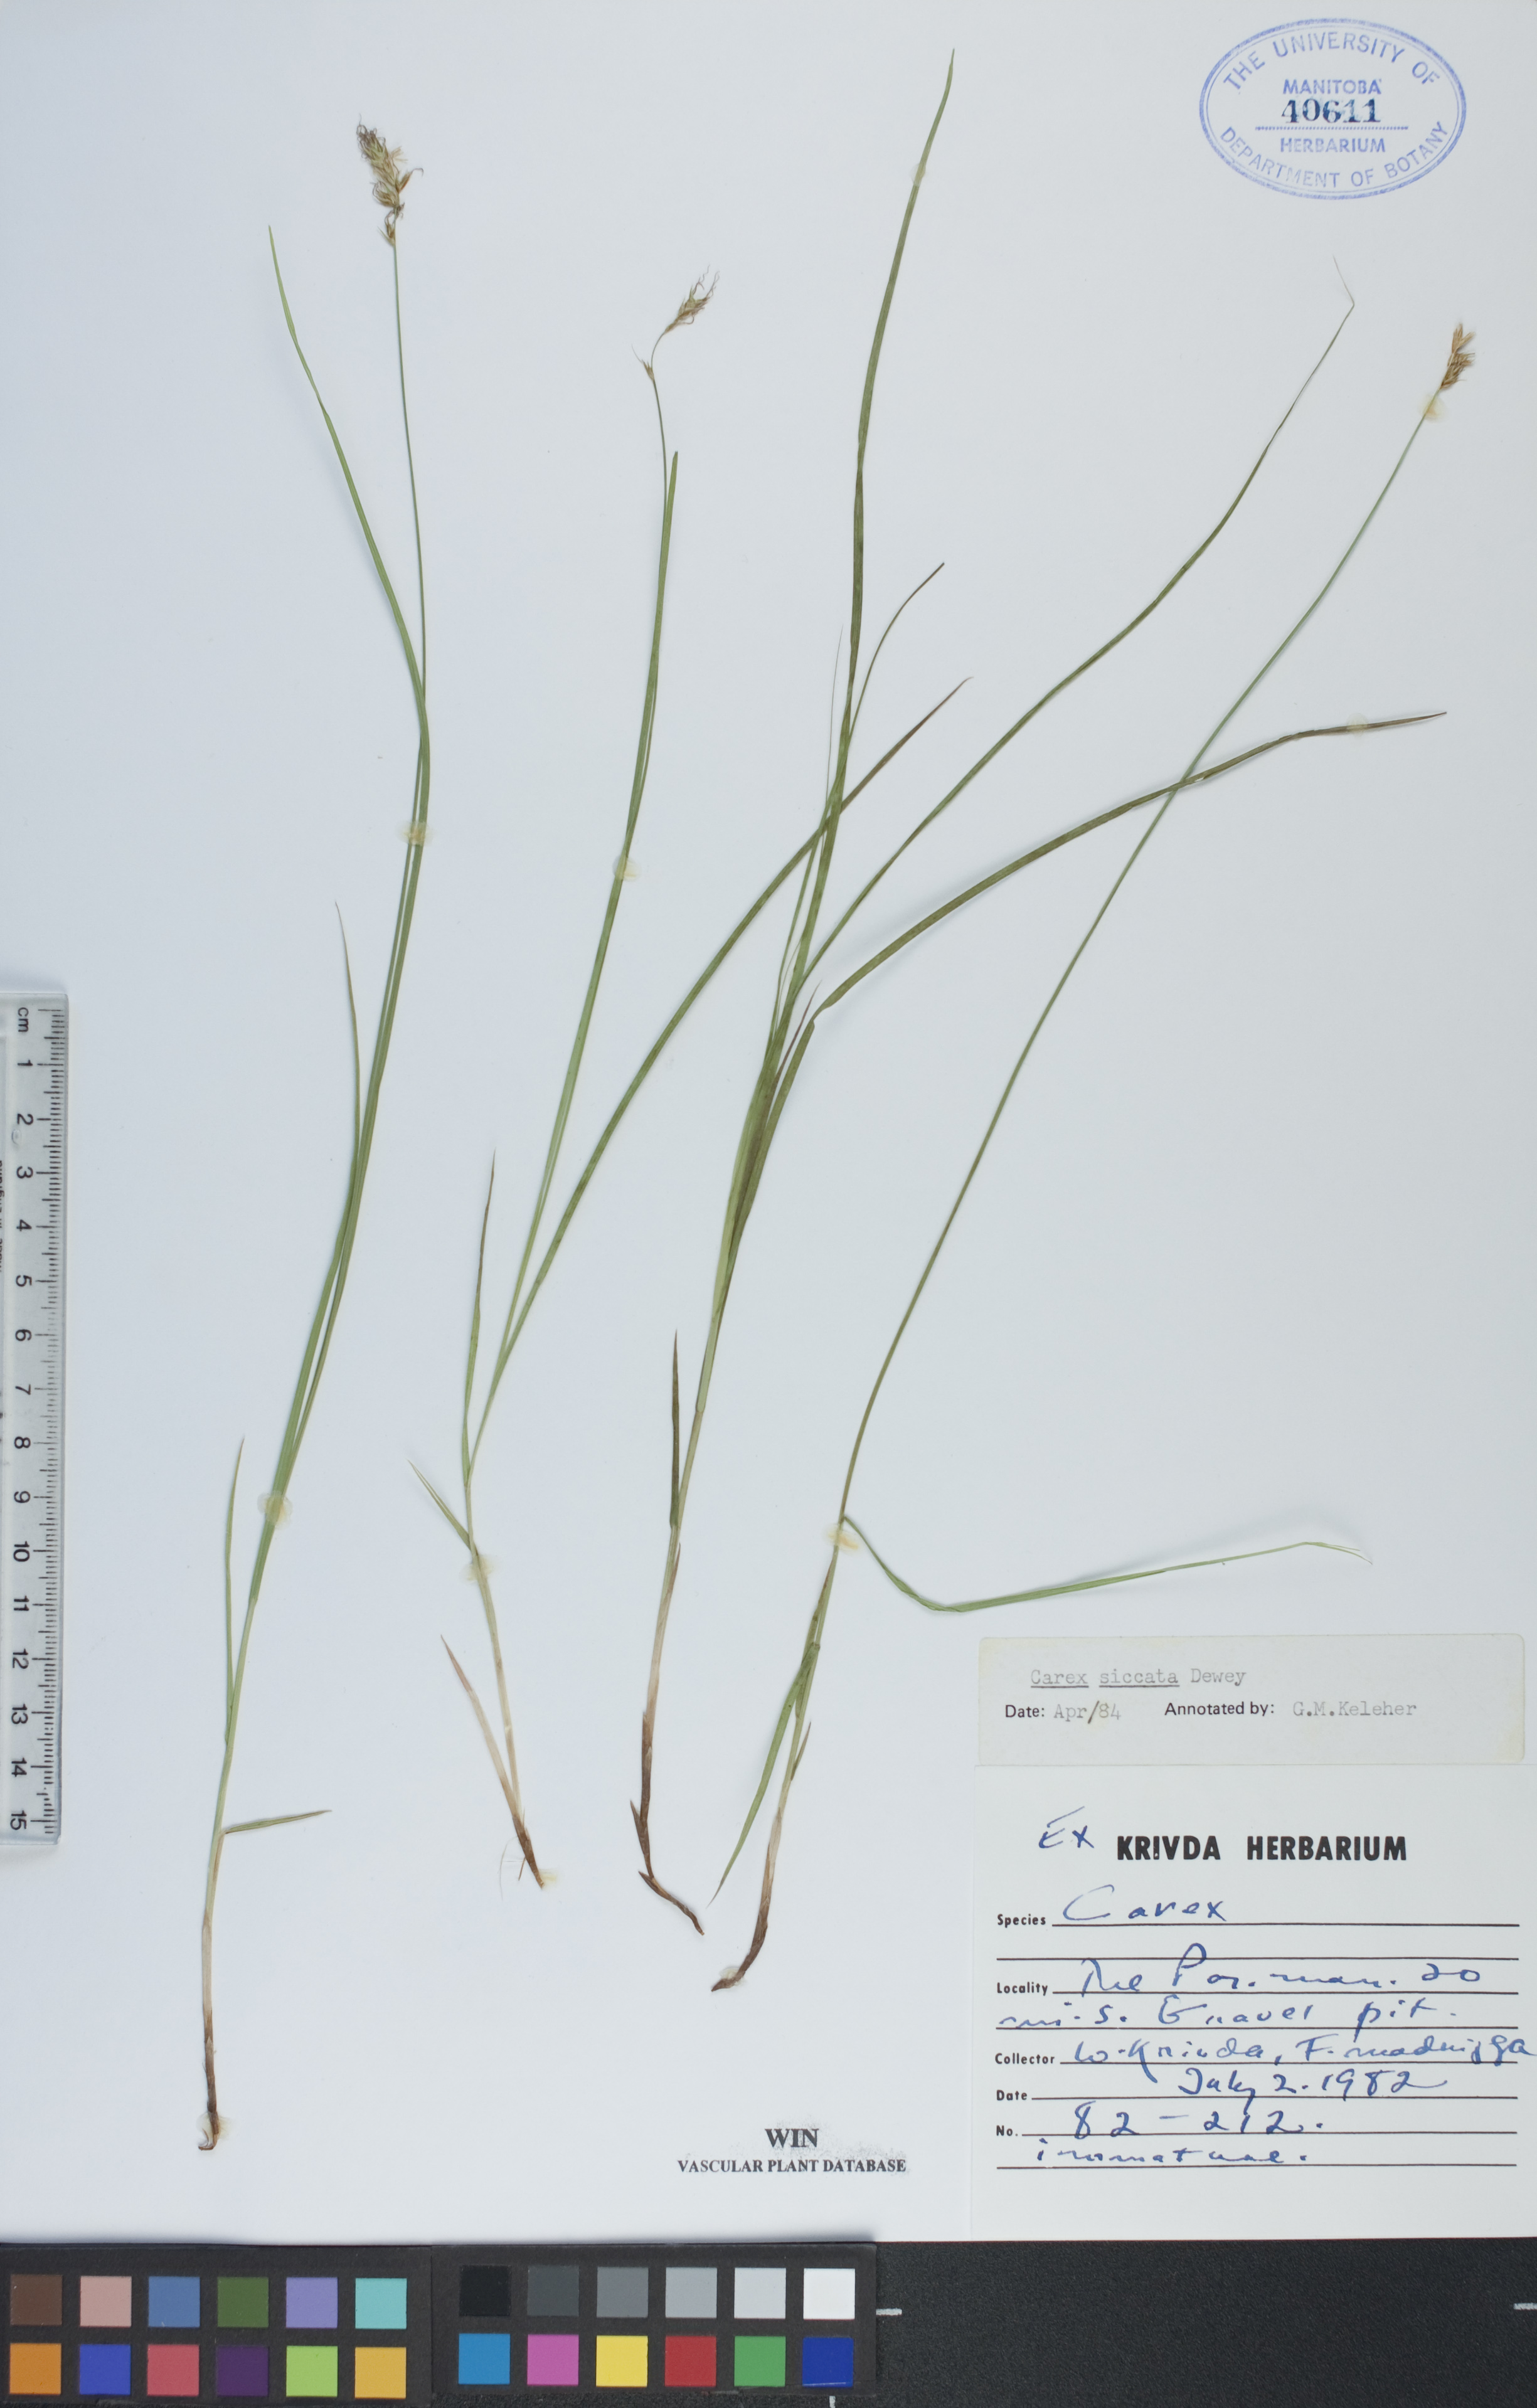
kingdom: Plantae
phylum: Tracheophyta
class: Liliopsida
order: Poales
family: Cyperaceae
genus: Carex
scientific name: Carex siccata
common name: Dry sedge
